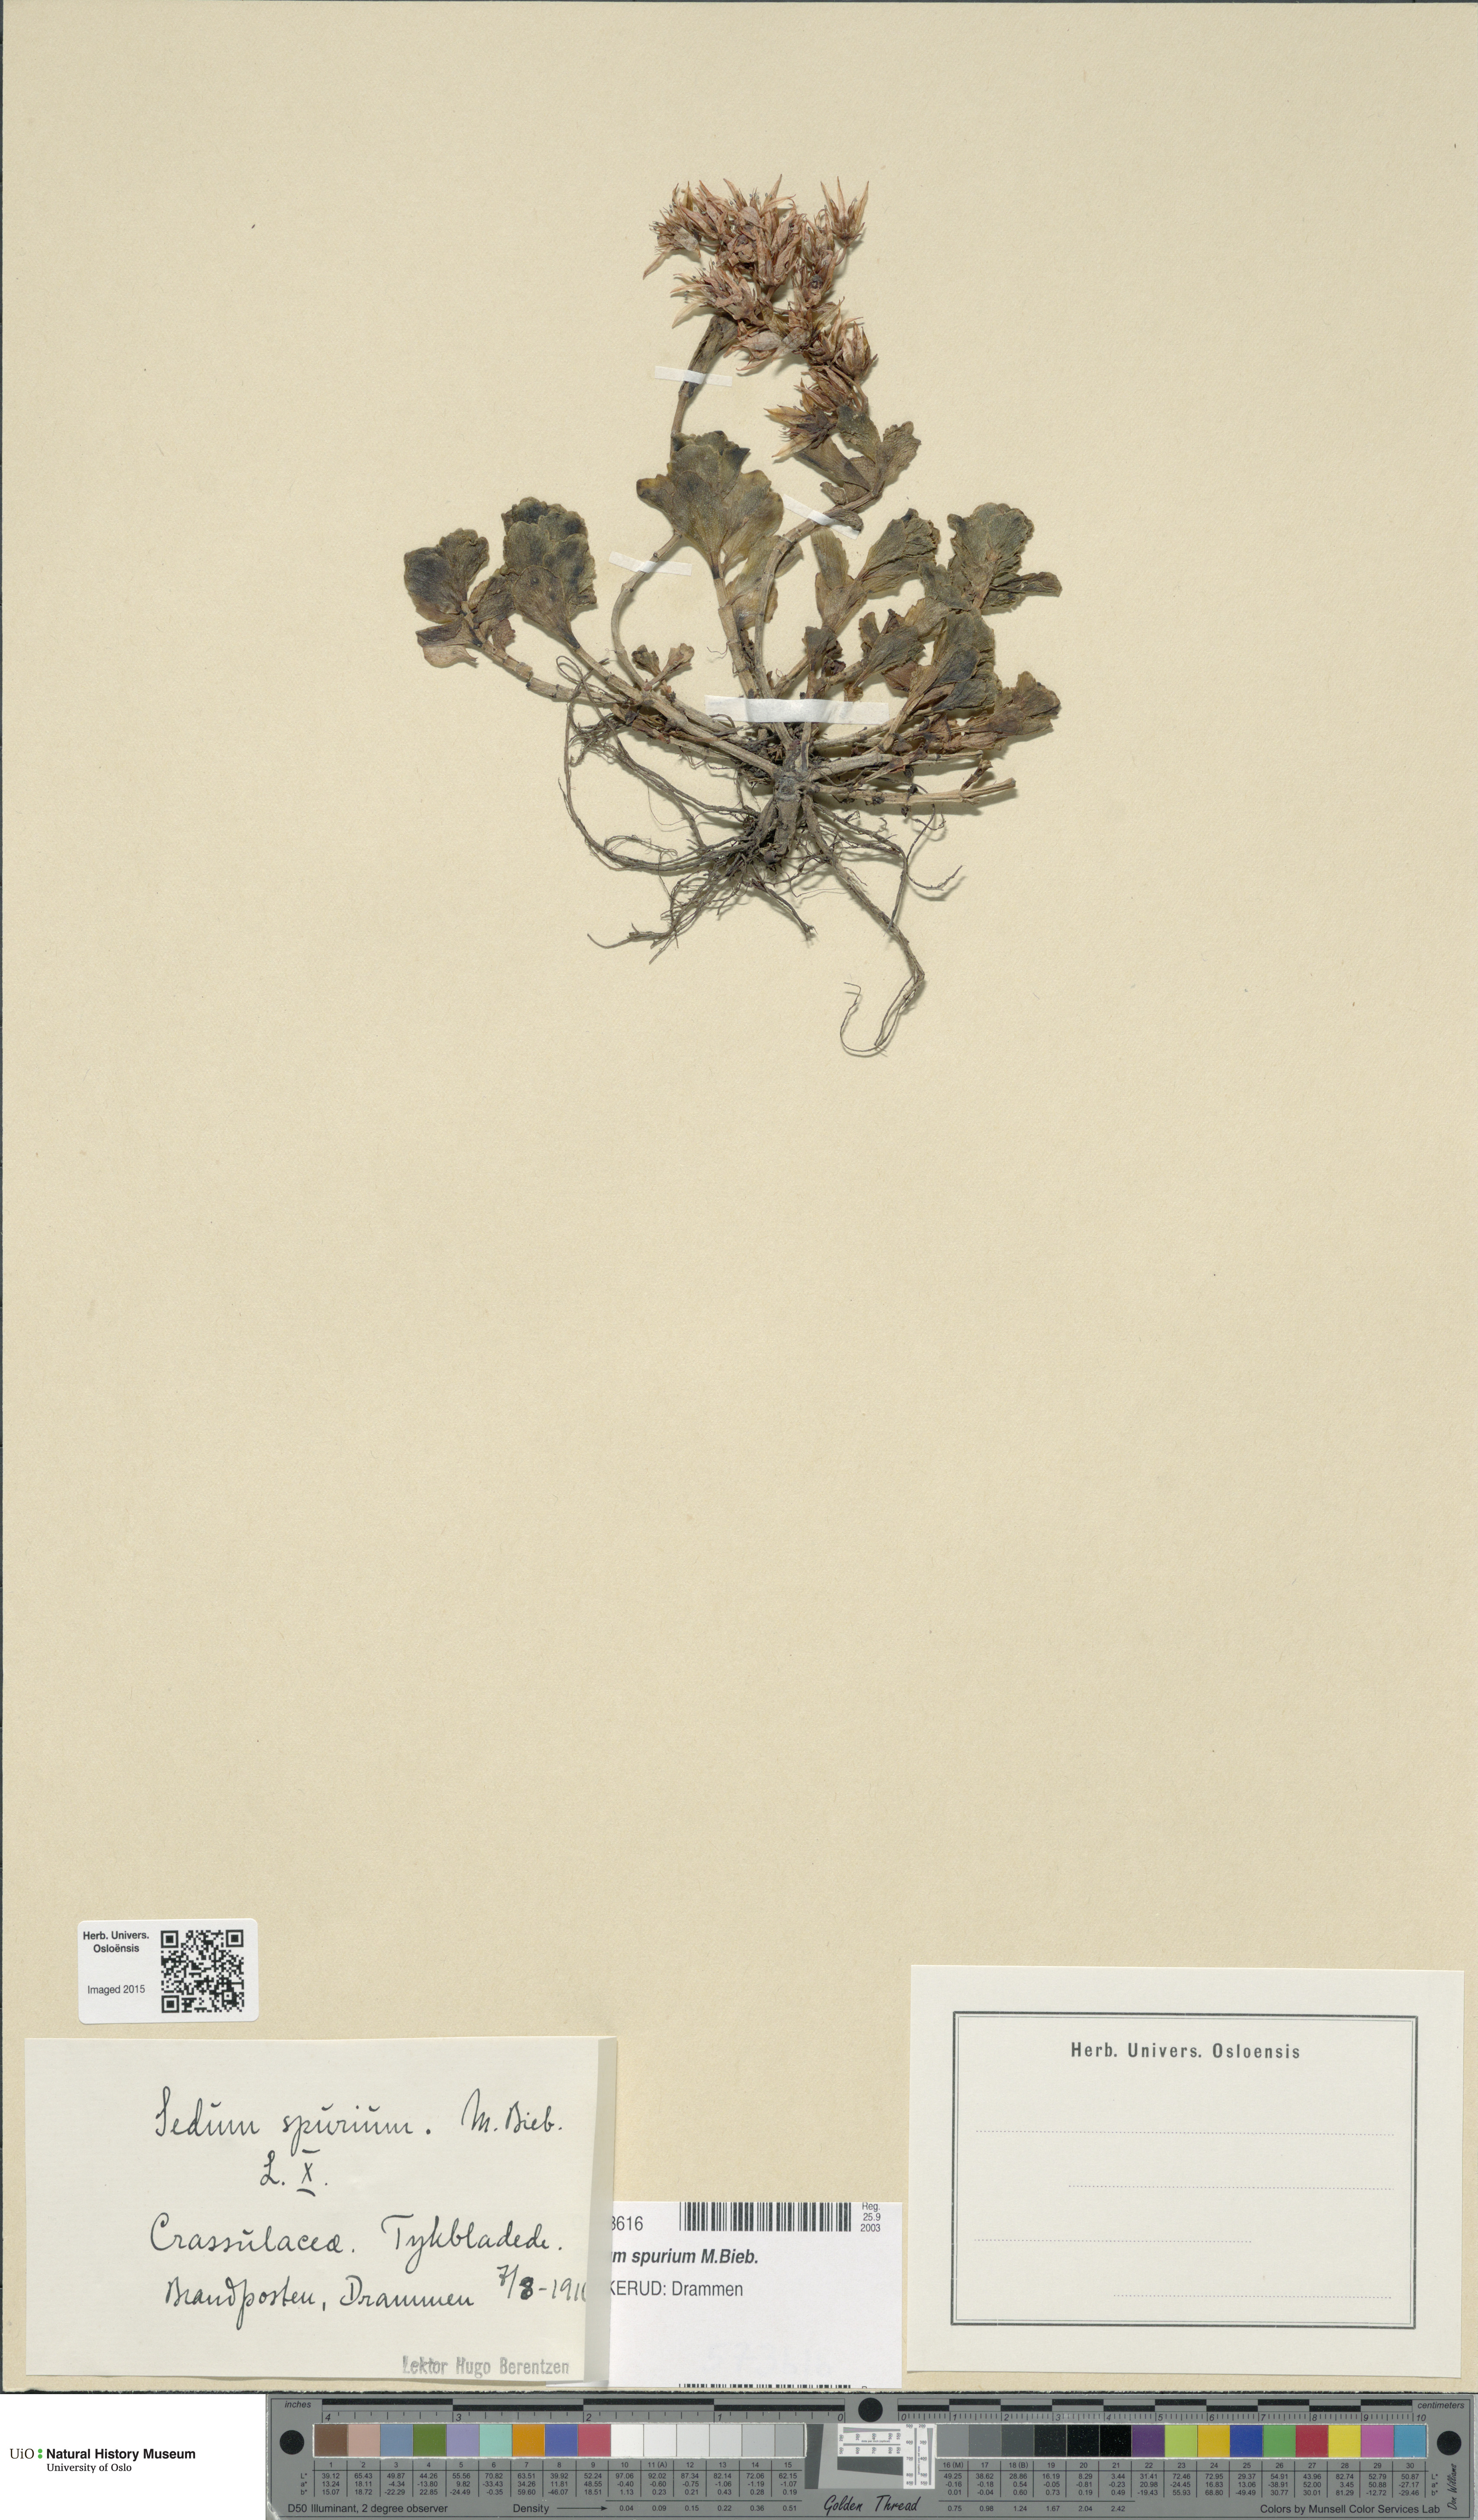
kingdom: Plantae
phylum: Tracheophyta
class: Magnoliopsida
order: Saxifragales
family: Crassulaceae
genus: Phedimus
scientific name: Phedimus spurius
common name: Caucasian stonecrop
